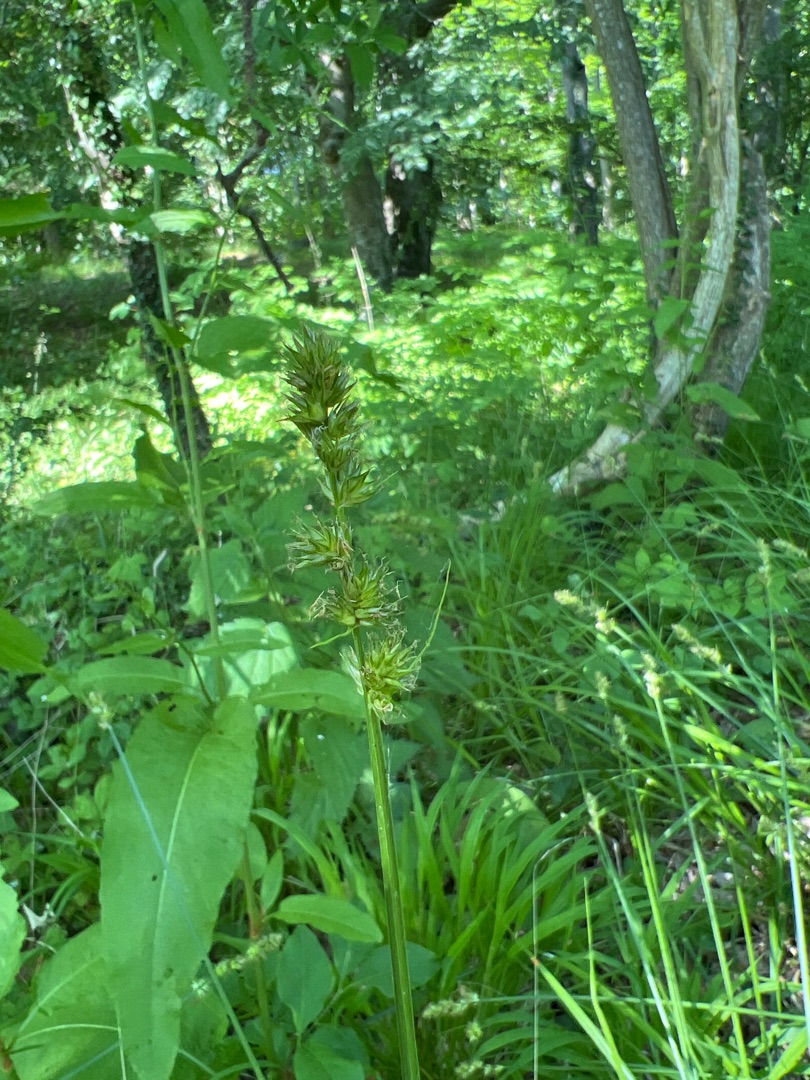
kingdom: Plantae
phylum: Tracheophyta
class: Liliopsida
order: Poales
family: Cyperaceae
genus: Carex
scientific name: Carex otrubae
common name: Sylt-star
